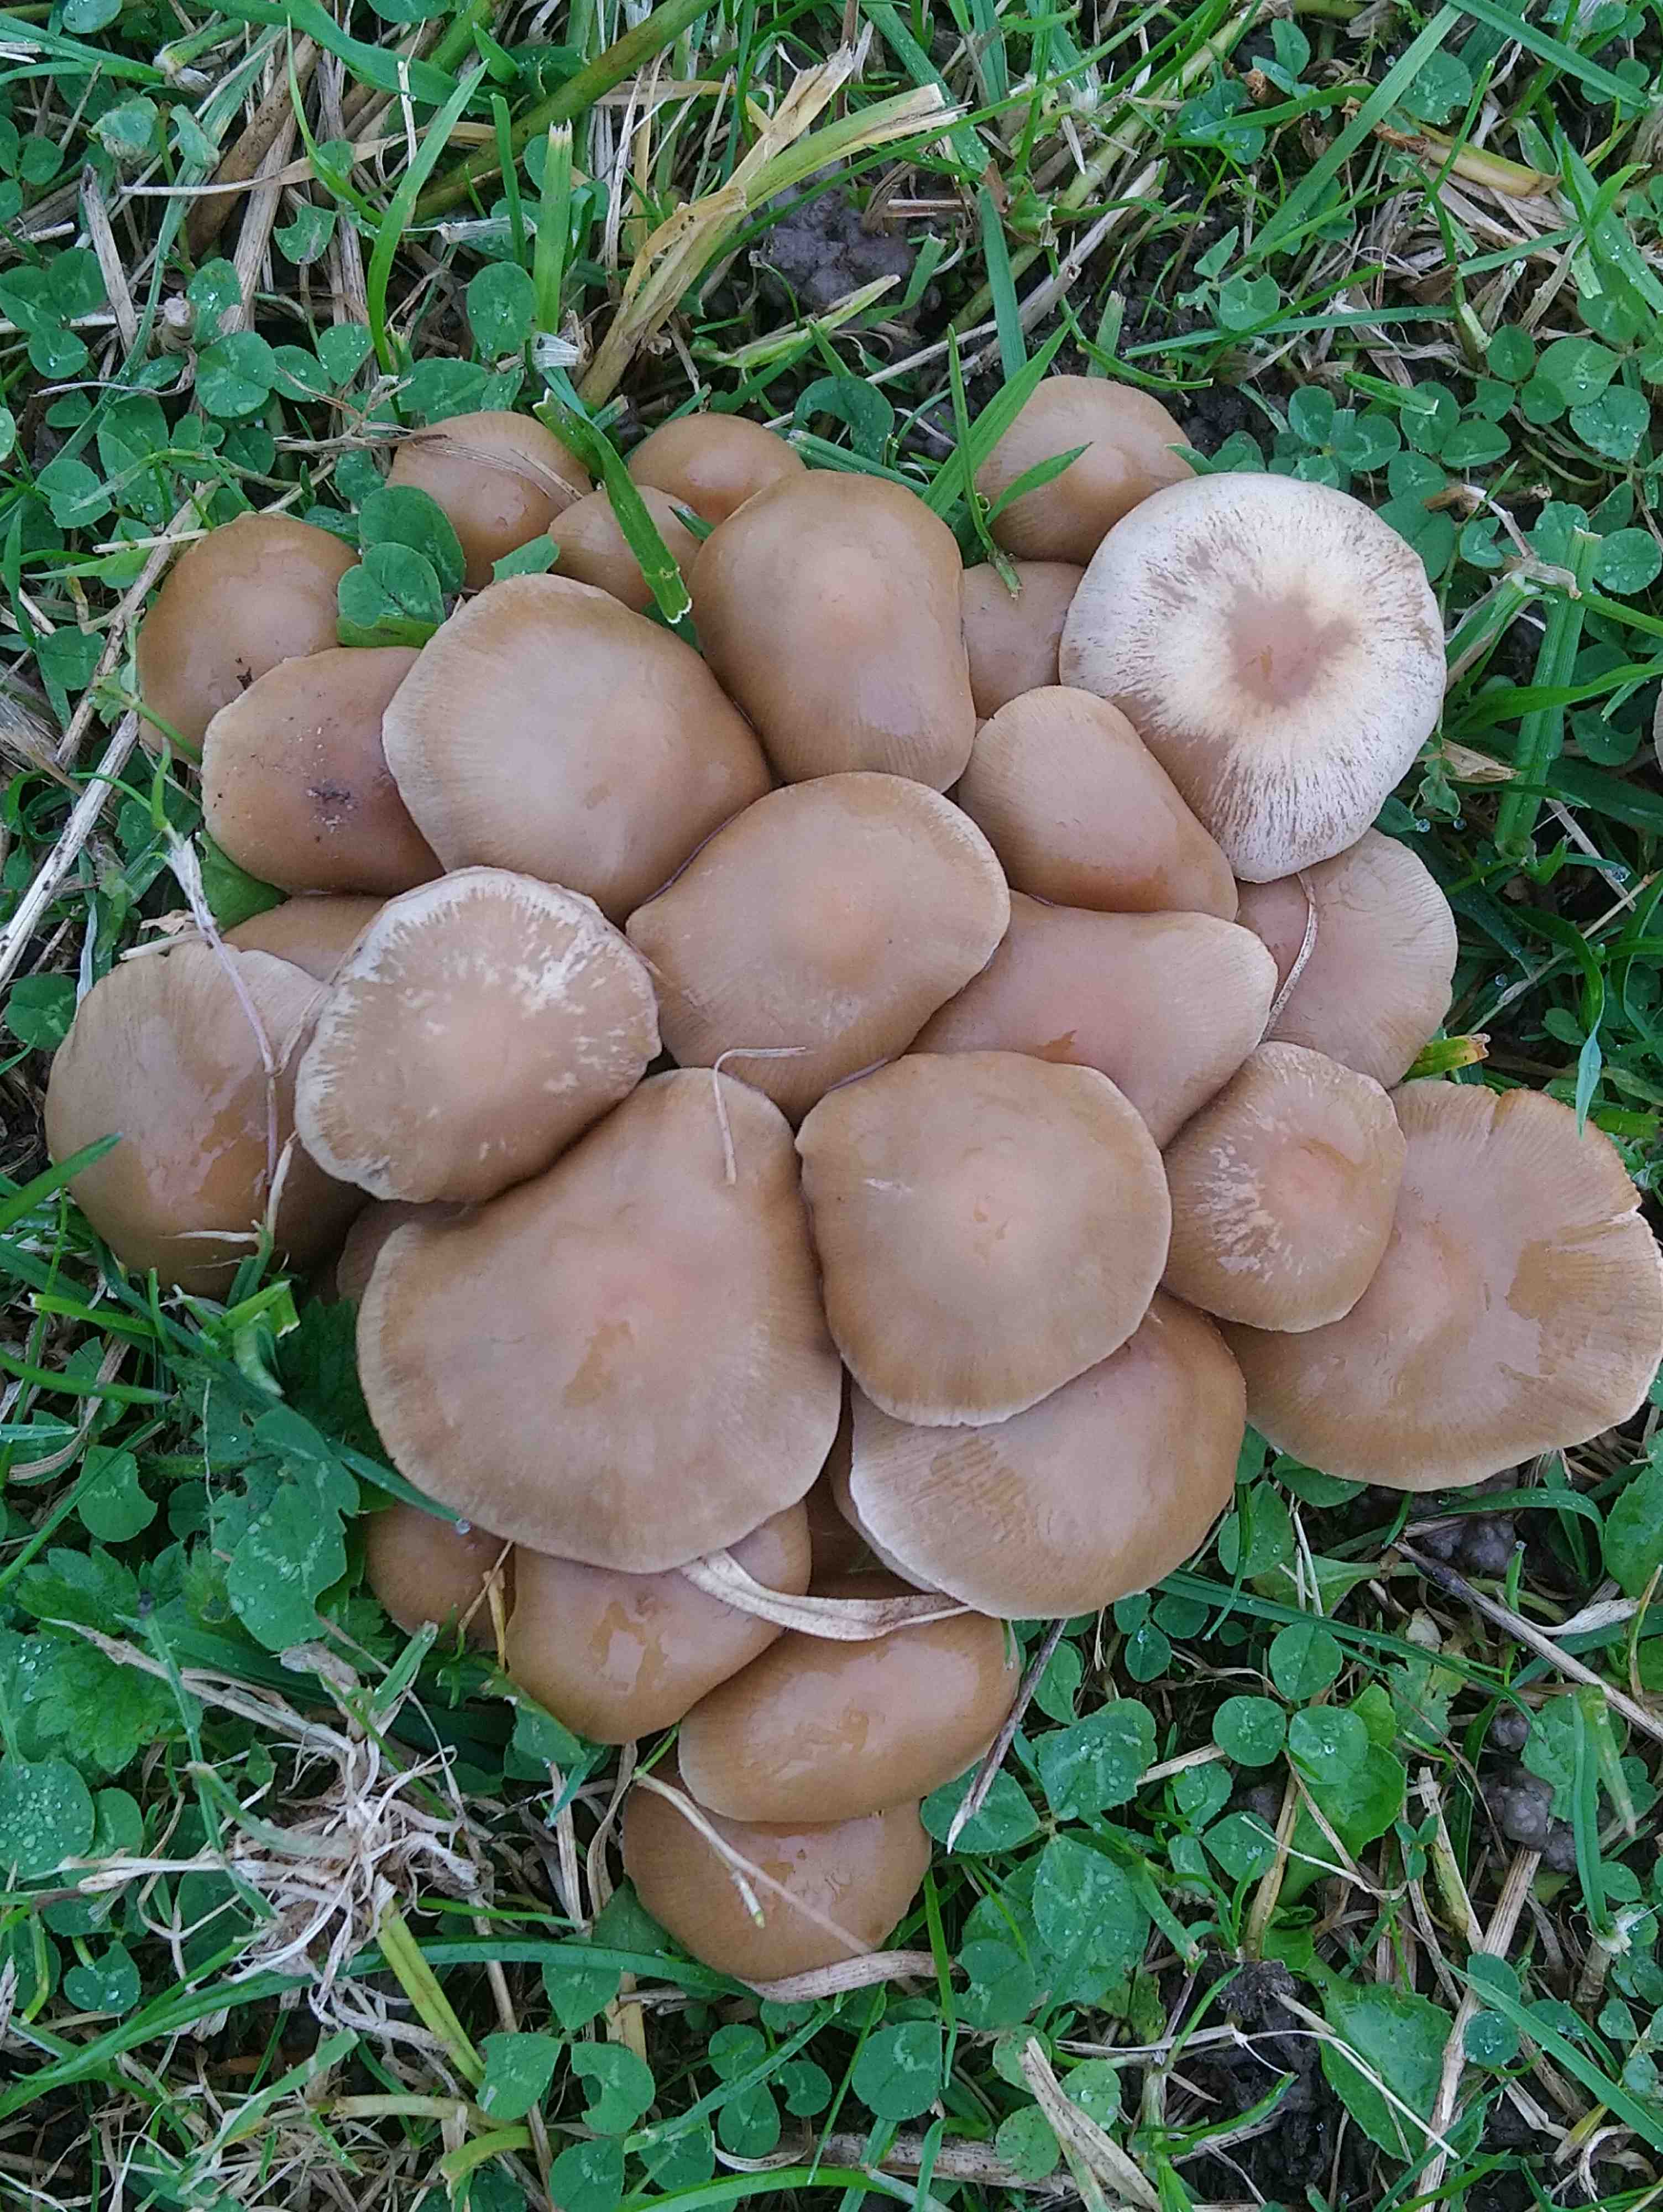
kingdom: Fungi
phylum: Basidiomycota
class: Agaricomycetes
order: Agaricales
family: Psathyrellaceae
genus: Britzelmayria
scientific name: Britzelmayria multipedata
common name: knippe-mørkhat
